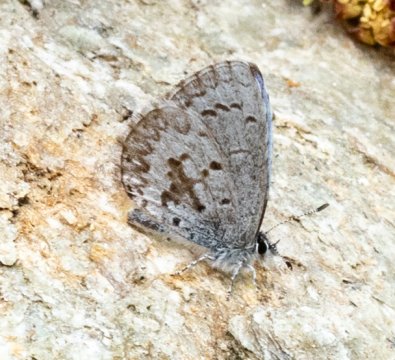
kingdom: Animalia
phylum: Arthropoda
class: Insecta
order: Lepidoptera
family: Lycaenidae
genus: Celastrina
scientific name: Celastrina lucia
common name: Northern Spring Azure
